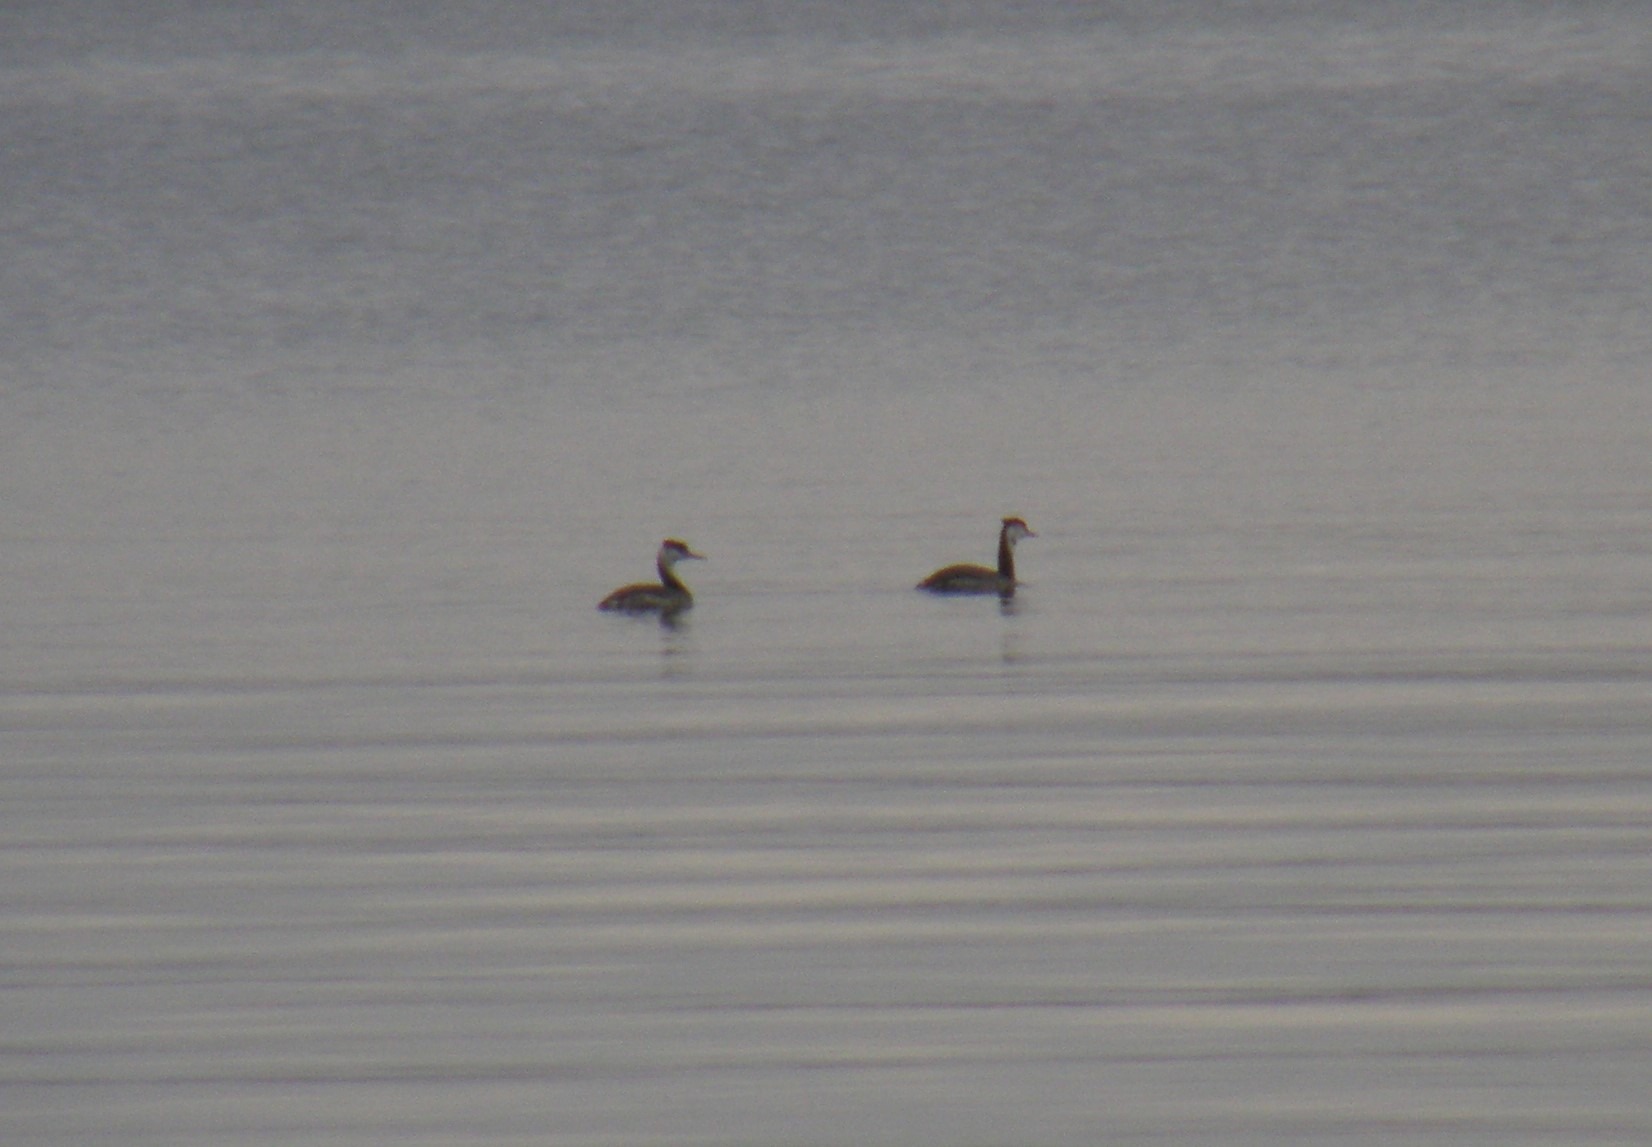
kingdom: Animalia
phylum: Chordata
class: Aves
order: Podicipediformes
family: Podicipedidae
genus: Podiceps
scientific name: Podiceps cristatus
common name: Toppet lappedykker
